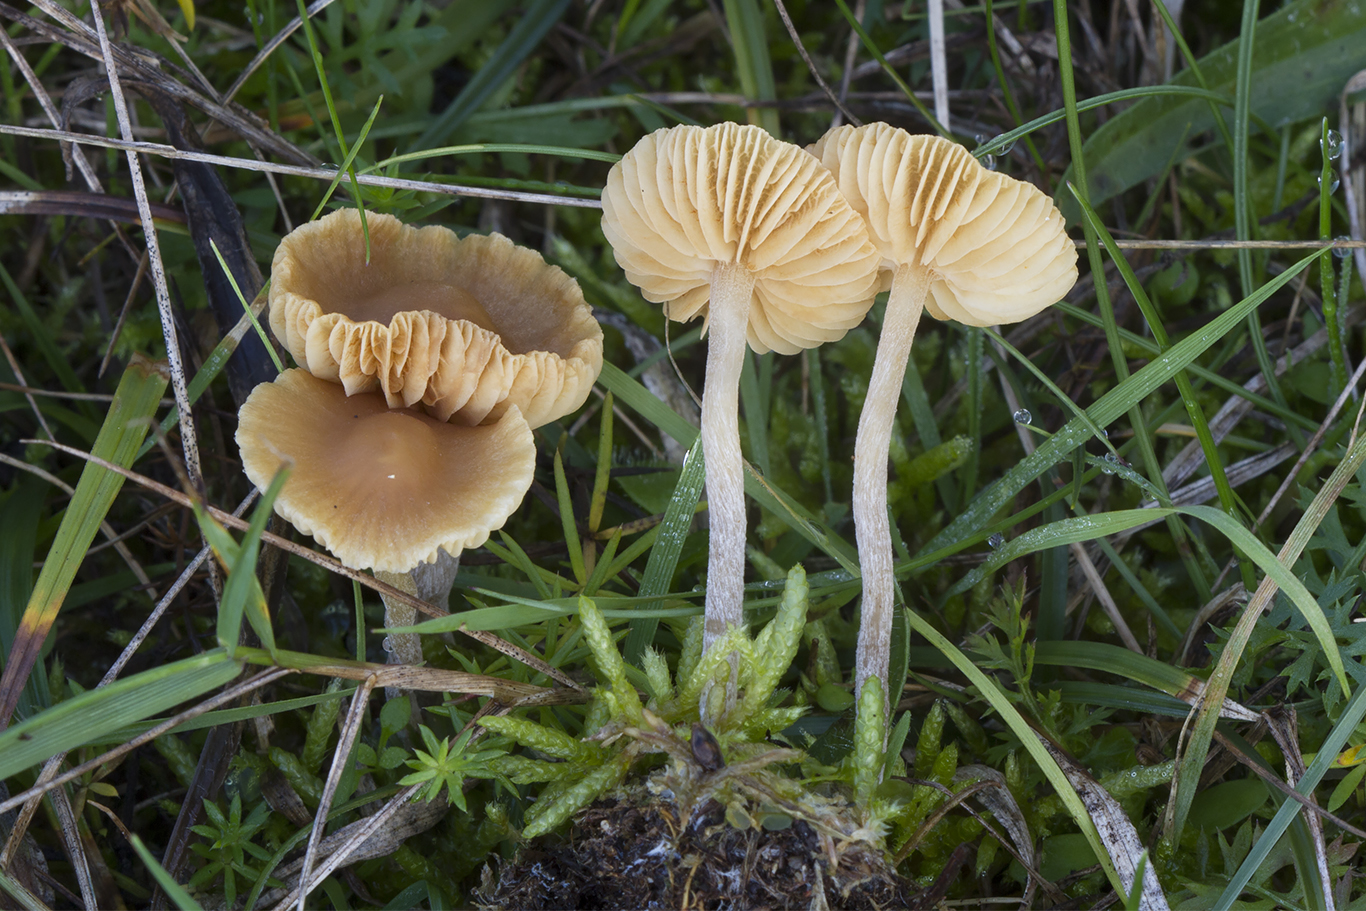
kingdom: Fungi
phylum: Basidiomycota
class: Agaricomycetes
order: Agaricales
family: Hymenogastraceae
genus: Galerina
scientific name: Galerina graminea
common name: plæne-hjelmhat
